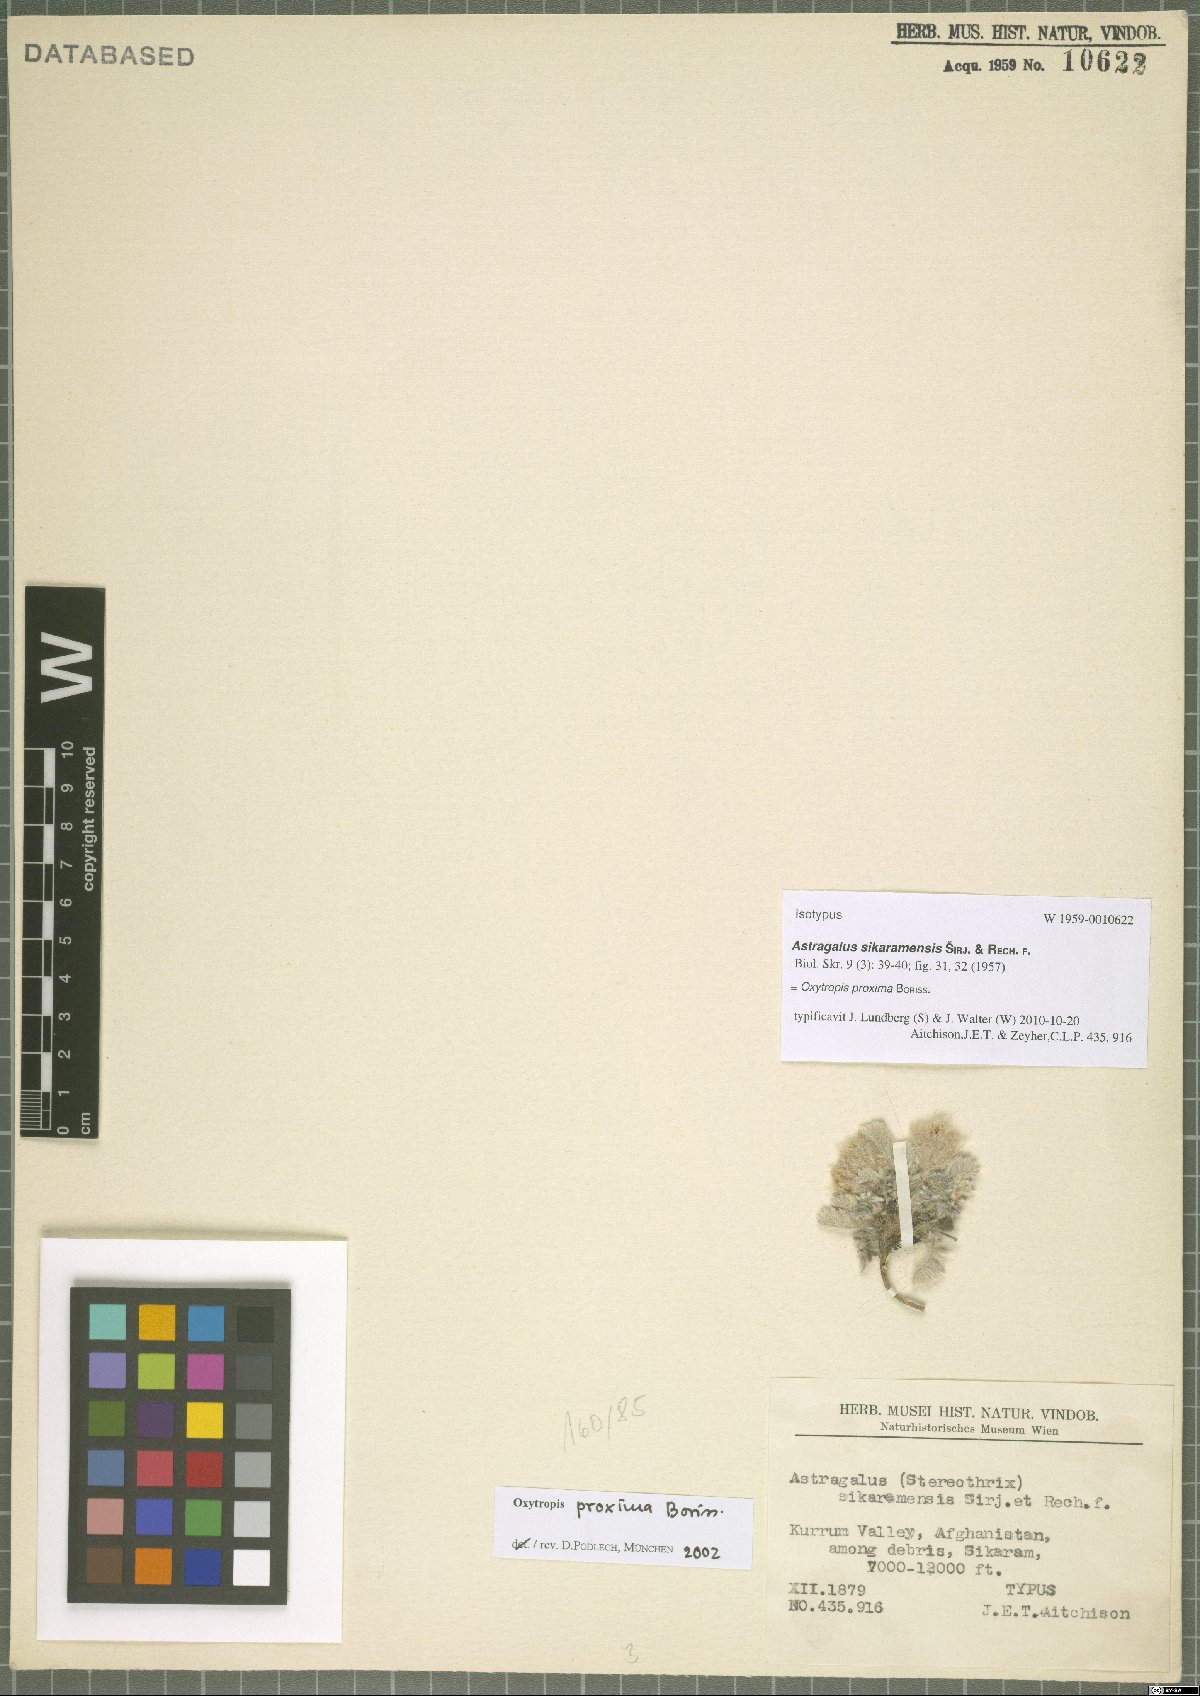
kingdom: Plantae
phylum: Tracheophyta
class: Magnoliopsida
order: Fabales
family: Fabaceae
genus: Oxytropis
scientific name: Oxytropis proxima
